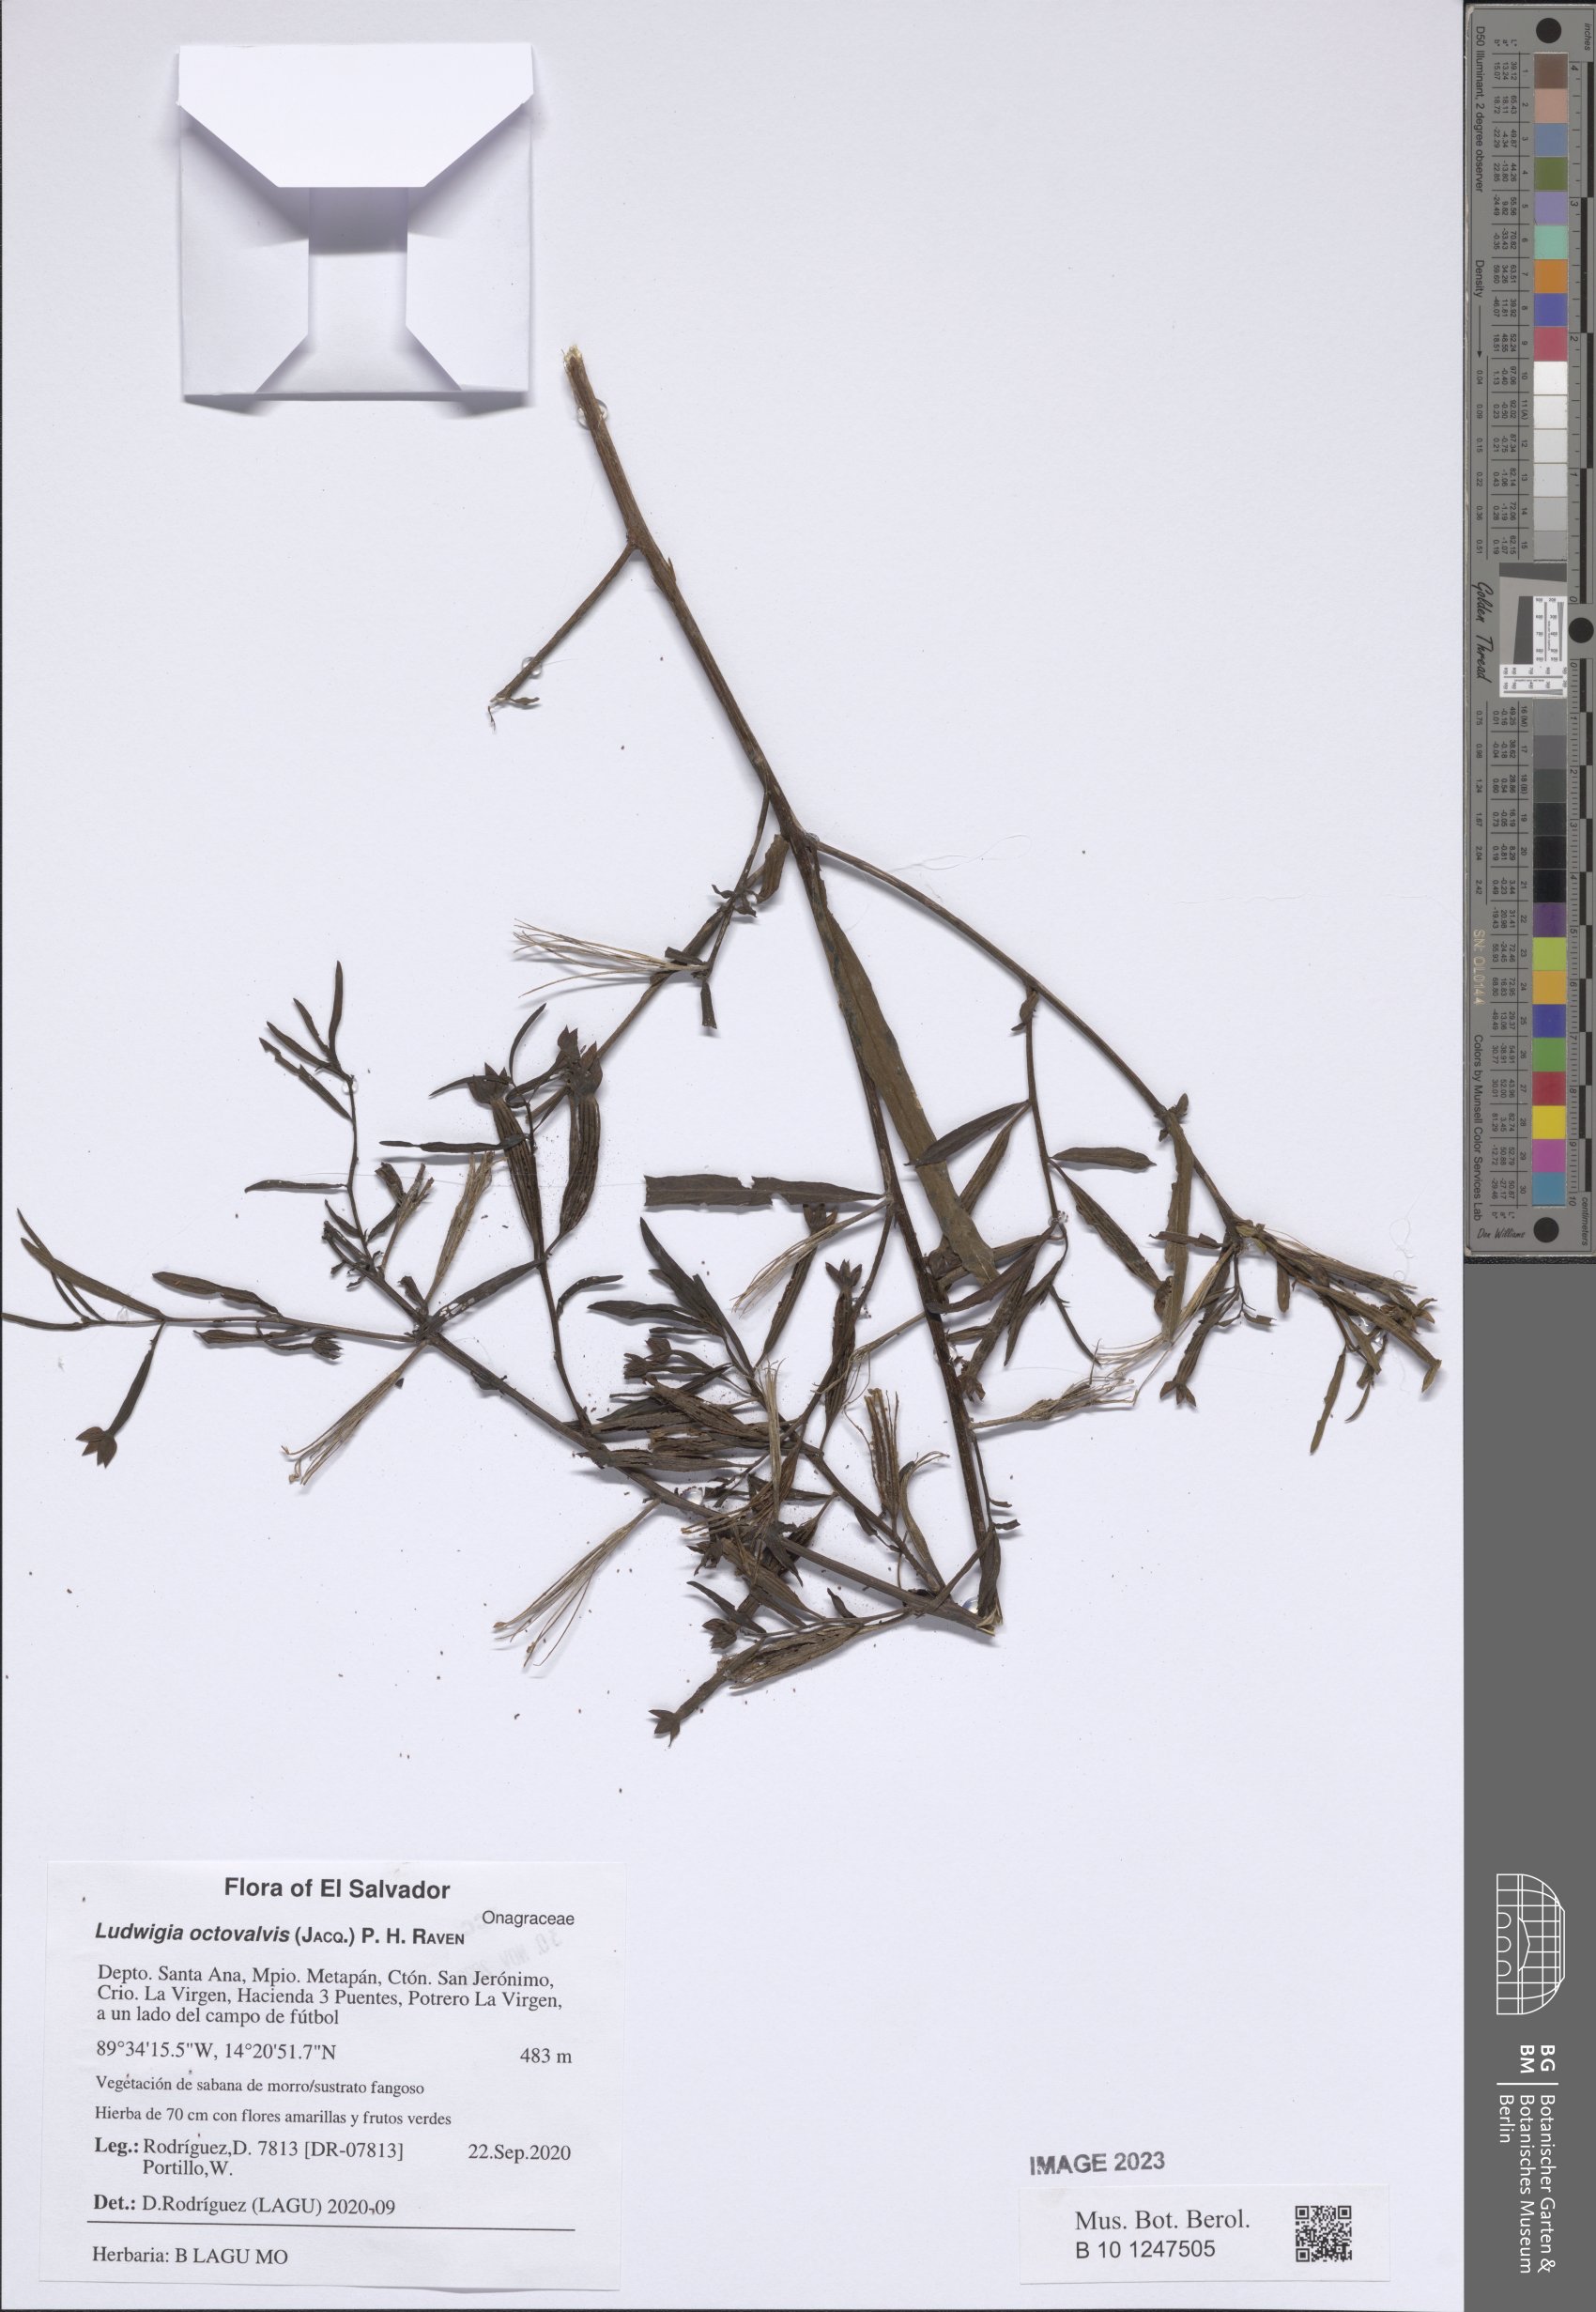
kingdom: Plantae
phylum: Tracheophyta
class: Magnoliopsida
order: Myrtales
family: Onagraceae
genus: Ludwigia
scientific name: Ludwigia octovalvis
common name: Water-primrose
